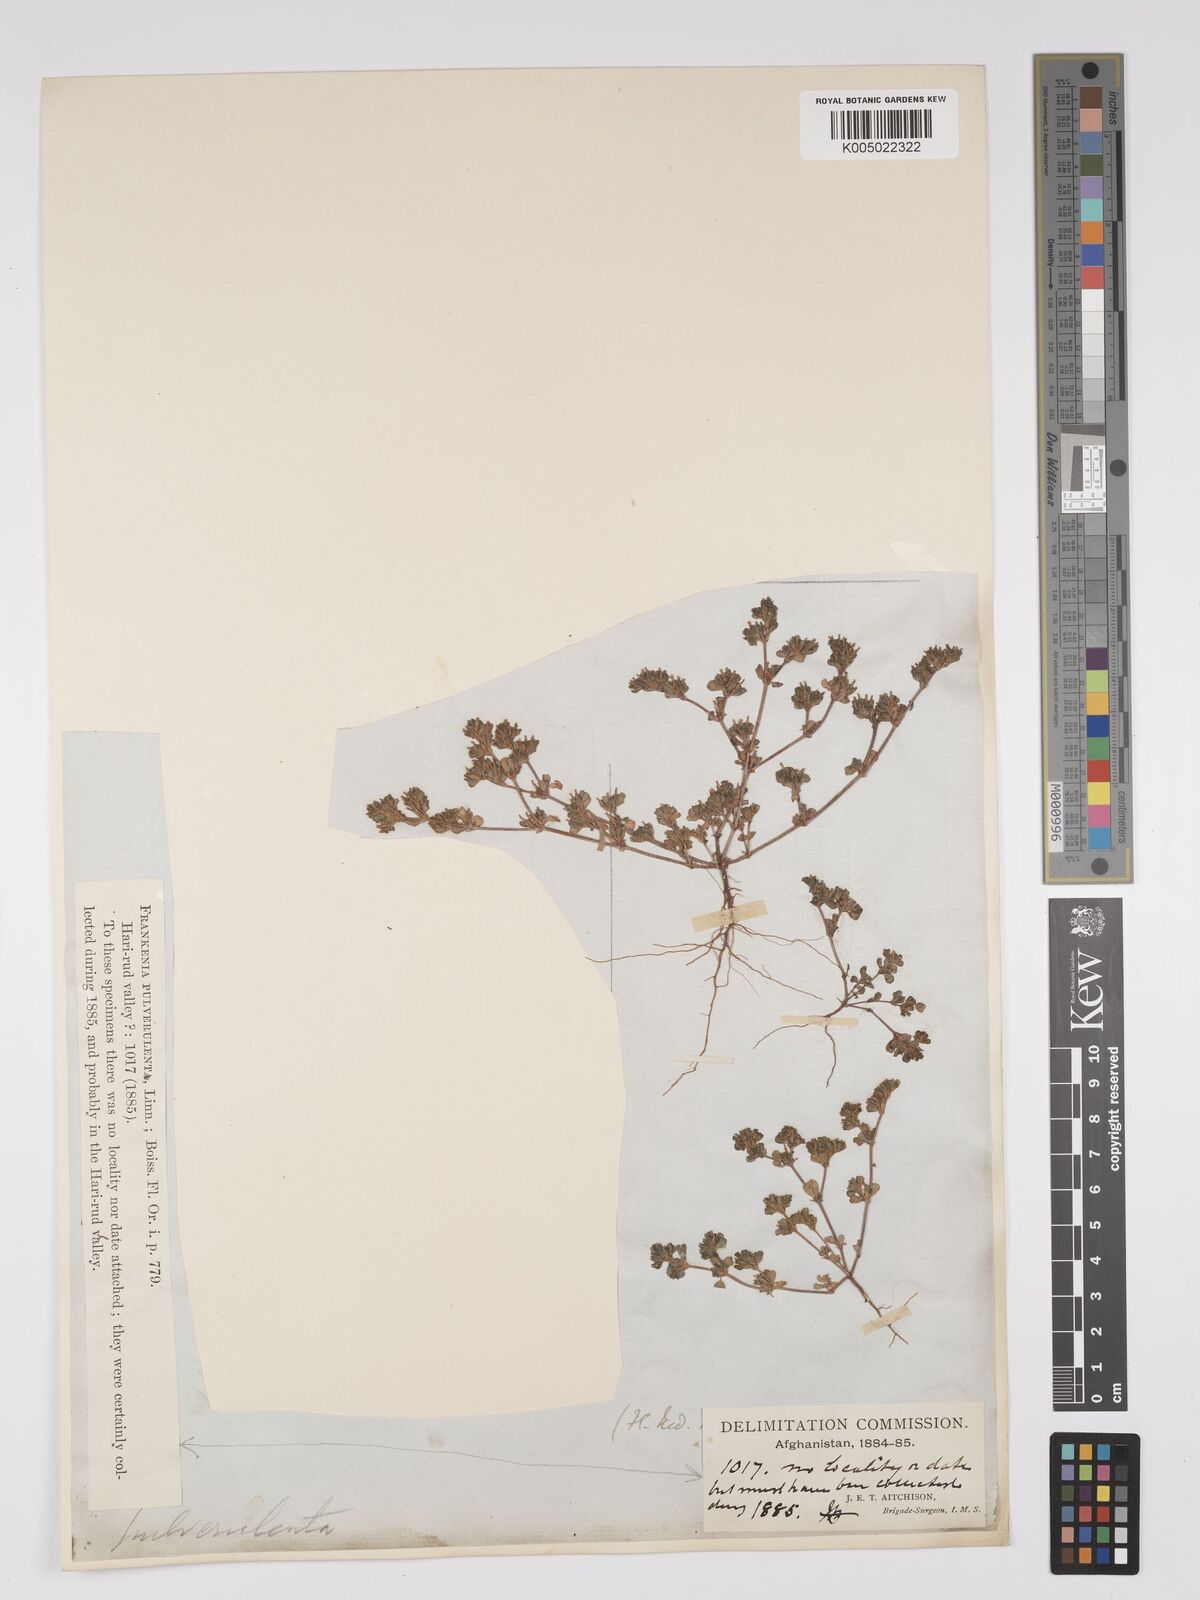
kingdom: Plantae
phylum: Tracheophyta
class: Magnoliopsida
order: Caryophyllales
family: Frankeniaceae
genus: Frankenia
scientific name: Frankenia pulverulenta
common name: European seaheath
